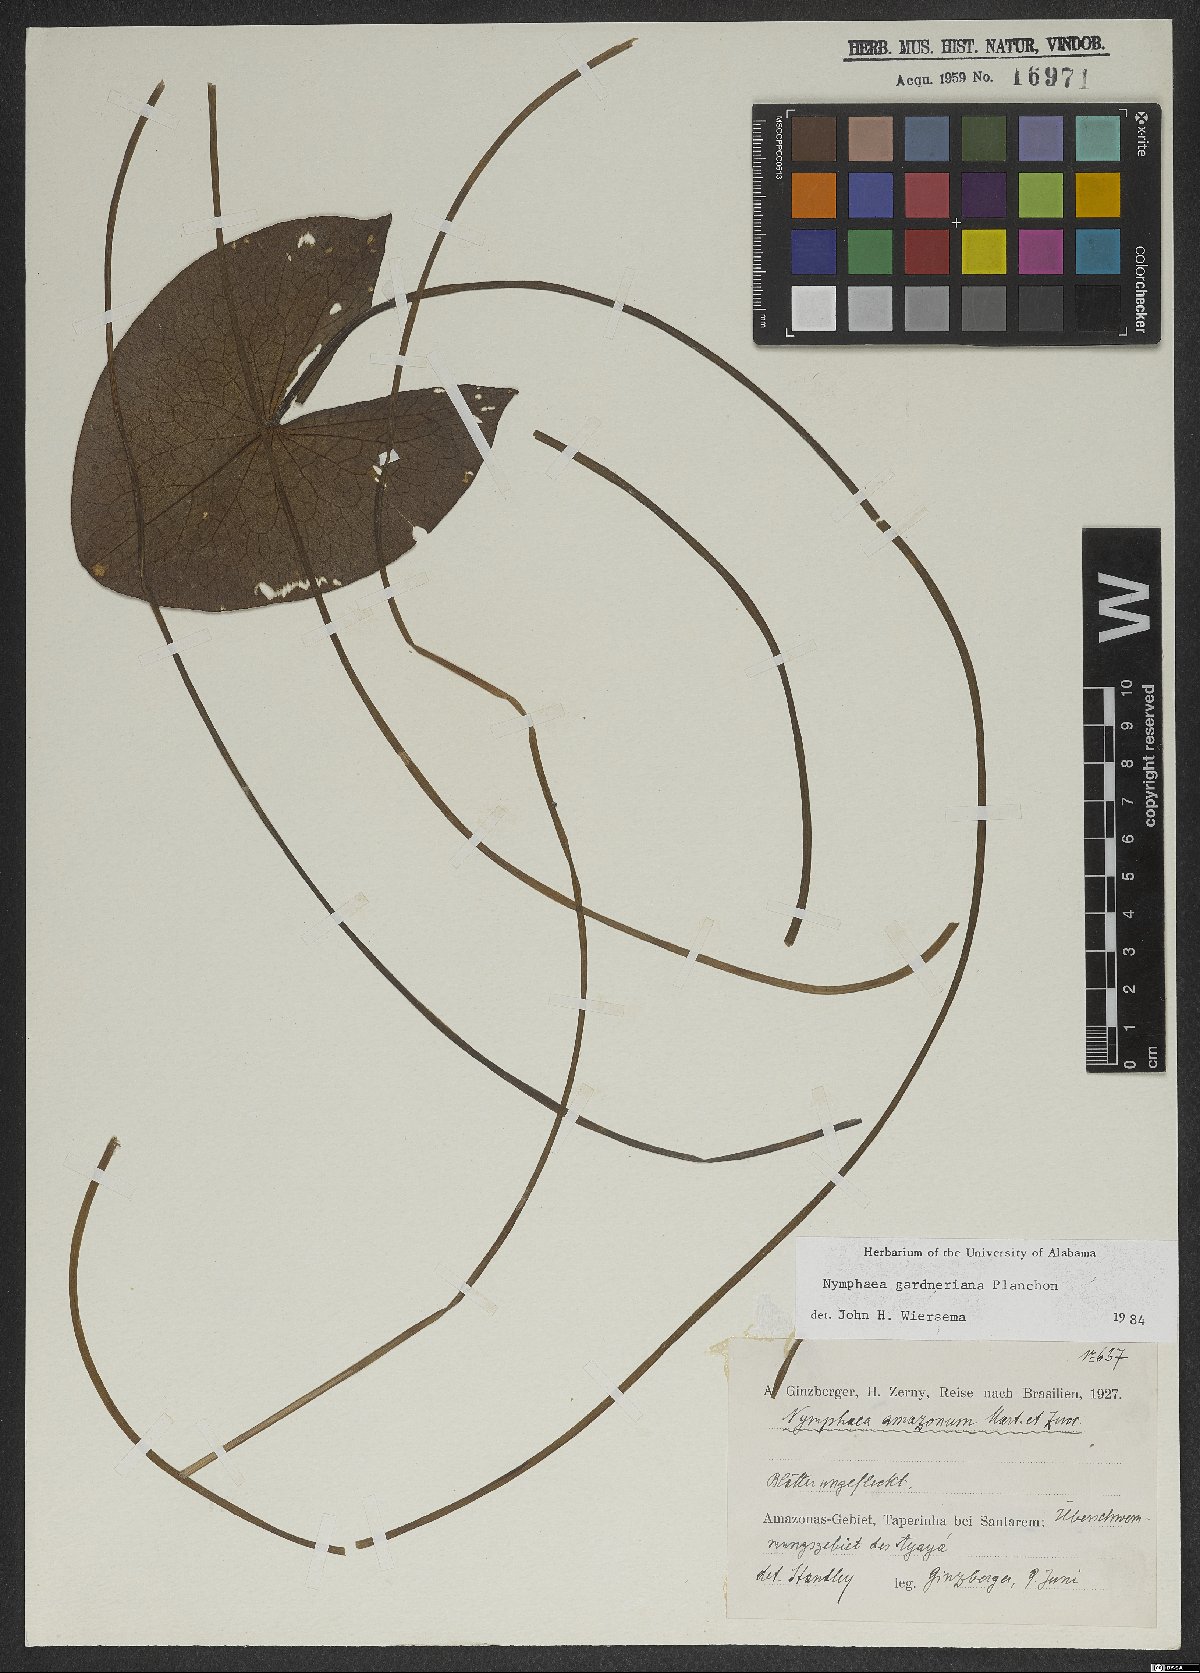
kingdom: Plantae
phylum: Tracheophyta
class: Magnoliopsida
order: Nymphaeales
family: Nymphaeaceae
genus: Nymphaea
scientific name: Nymphaea gardneriana
